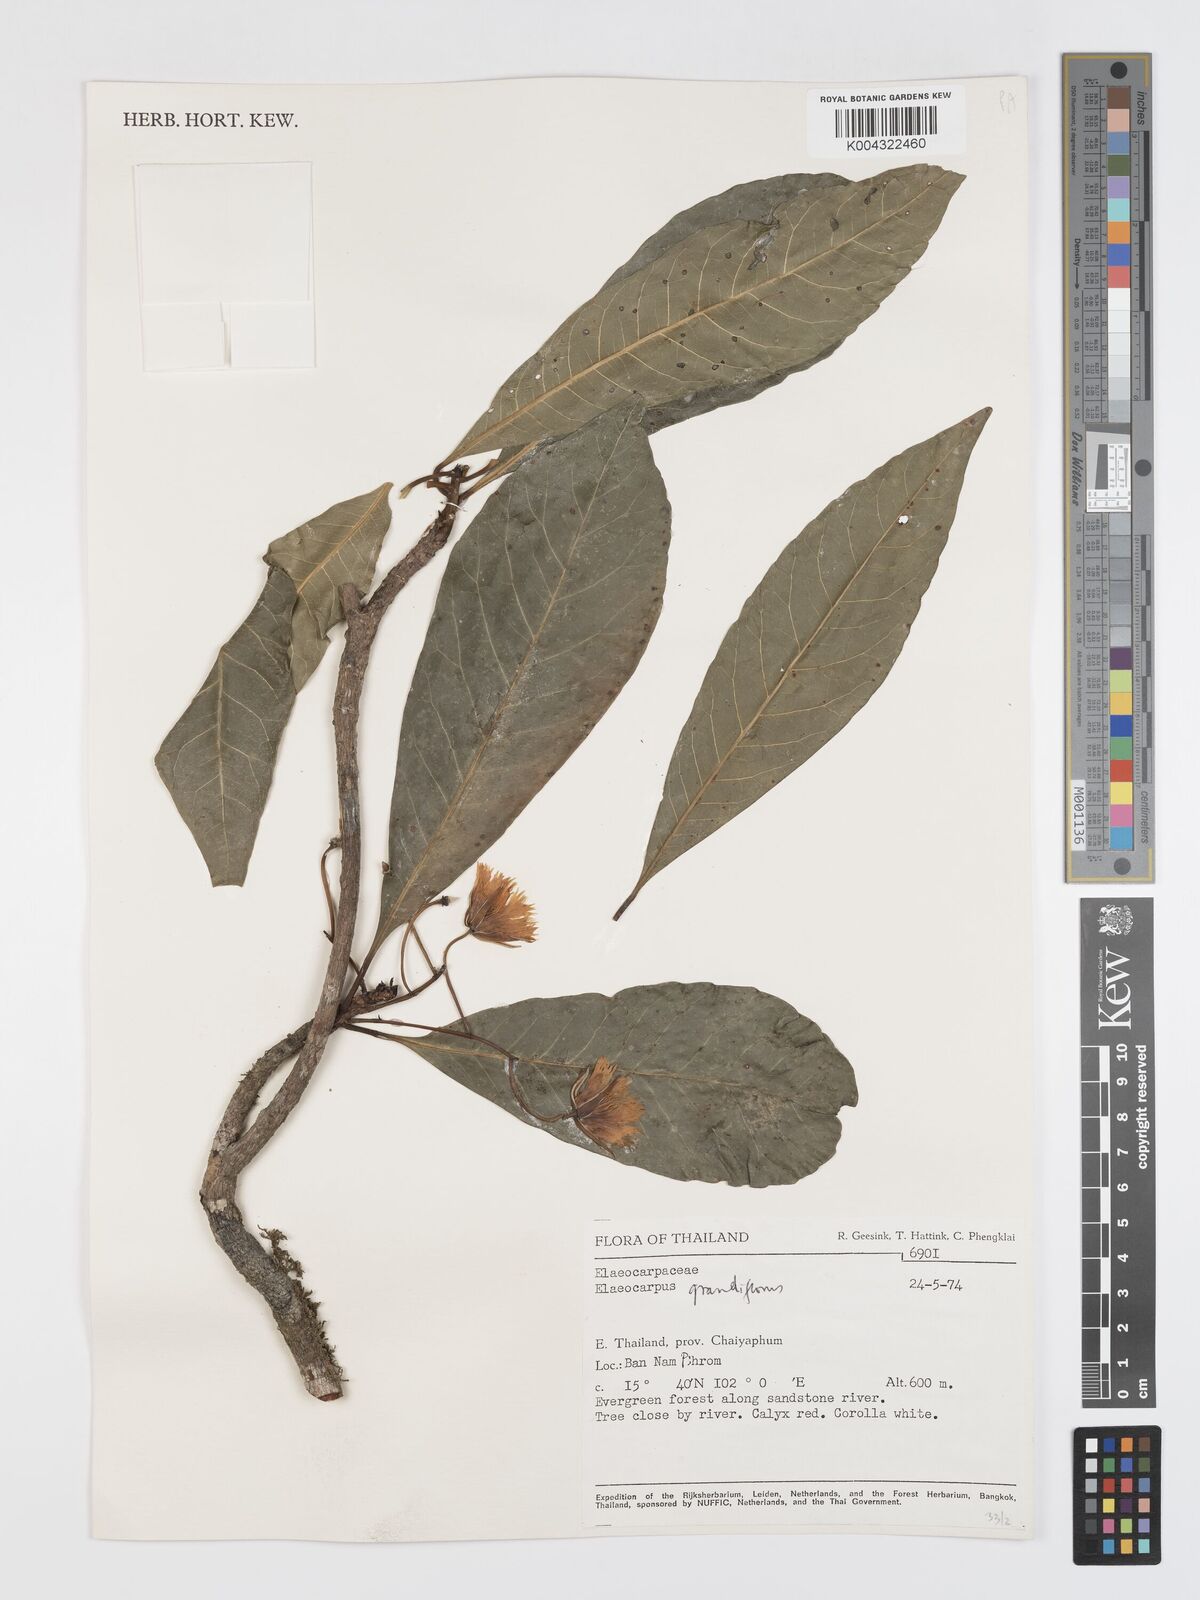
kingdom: Plantae
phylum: Tracheophyta
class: Magnoliopsida
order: Oxalidales
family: Elaeocarpaceae
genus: Elaeocarpus
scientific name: Elaeocarpus grandiflorus
